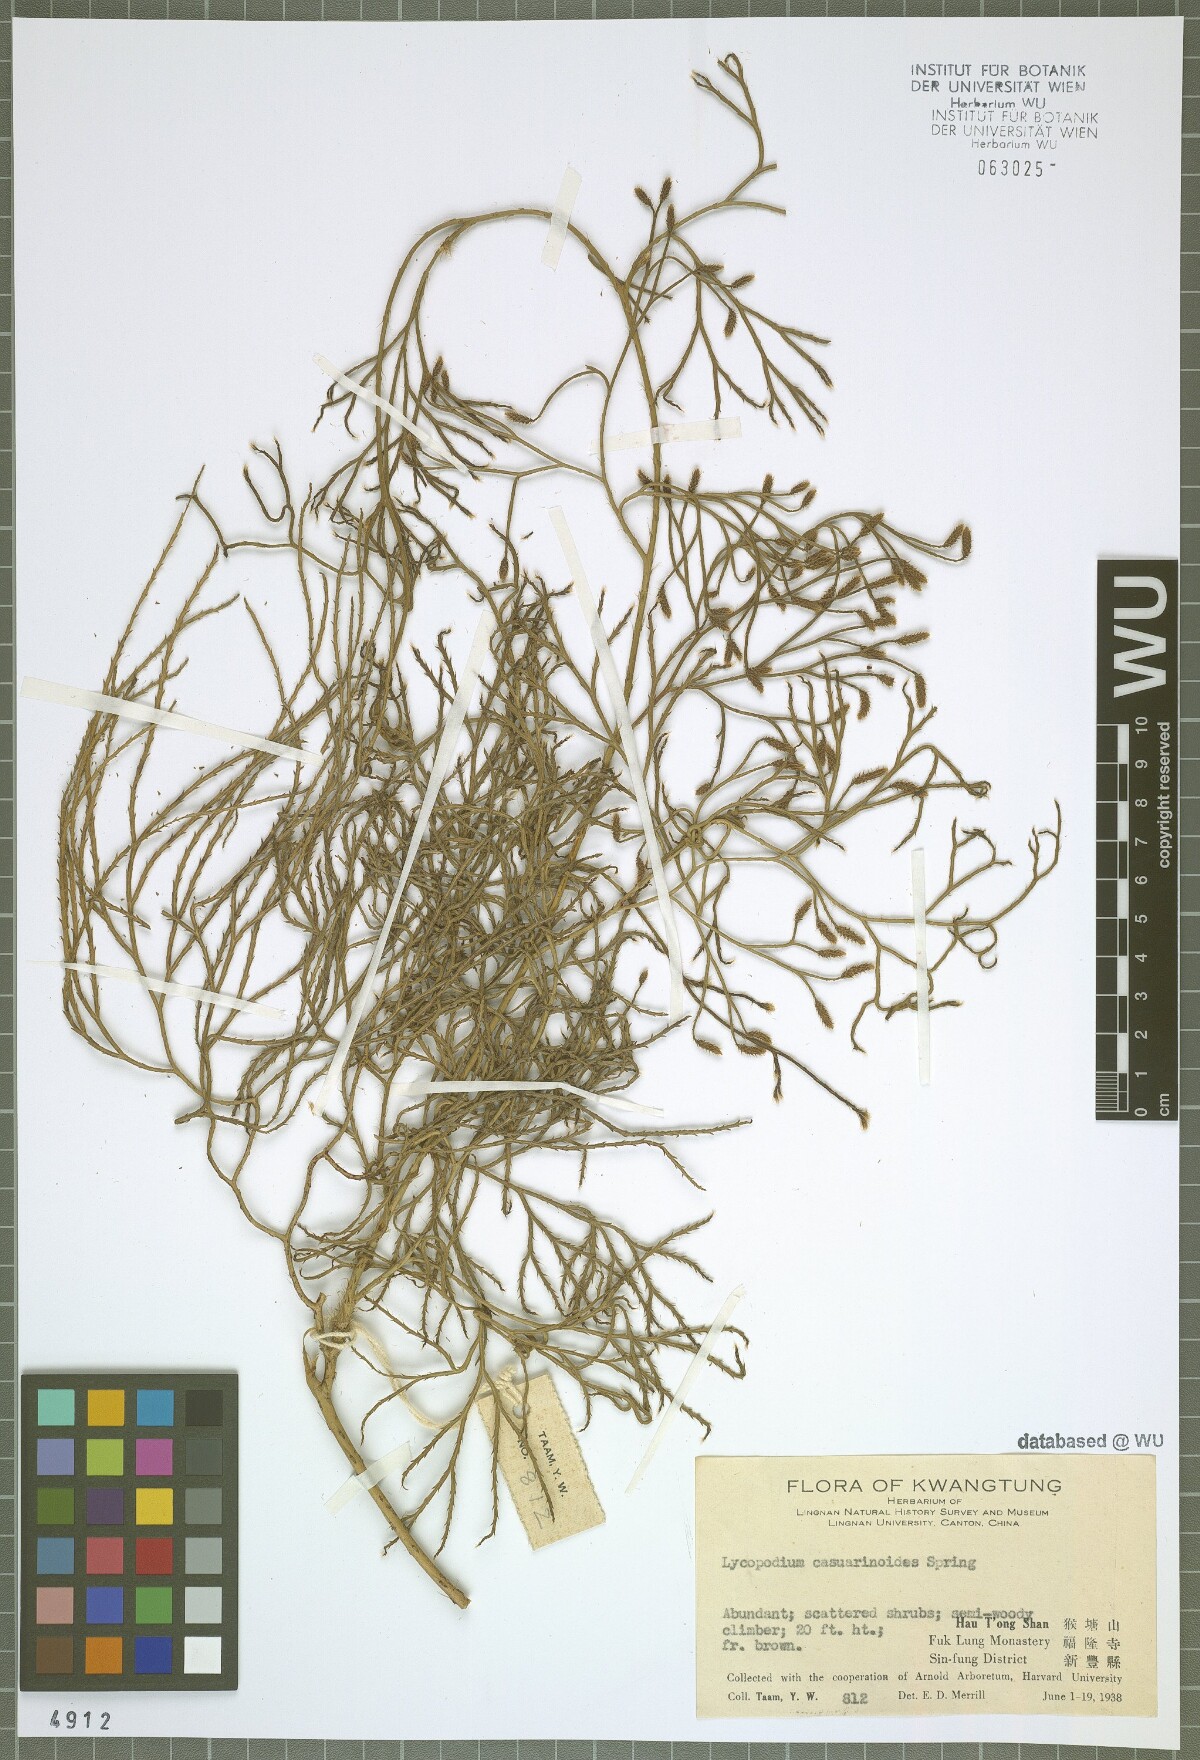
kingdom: Plantae
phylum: Tracheophyta
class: Lycopodiopsida
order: Lycopodiales
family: Lycopodiaceae
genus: Lycopodiastrum
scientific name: Lycopodiastrum casuarinoides
